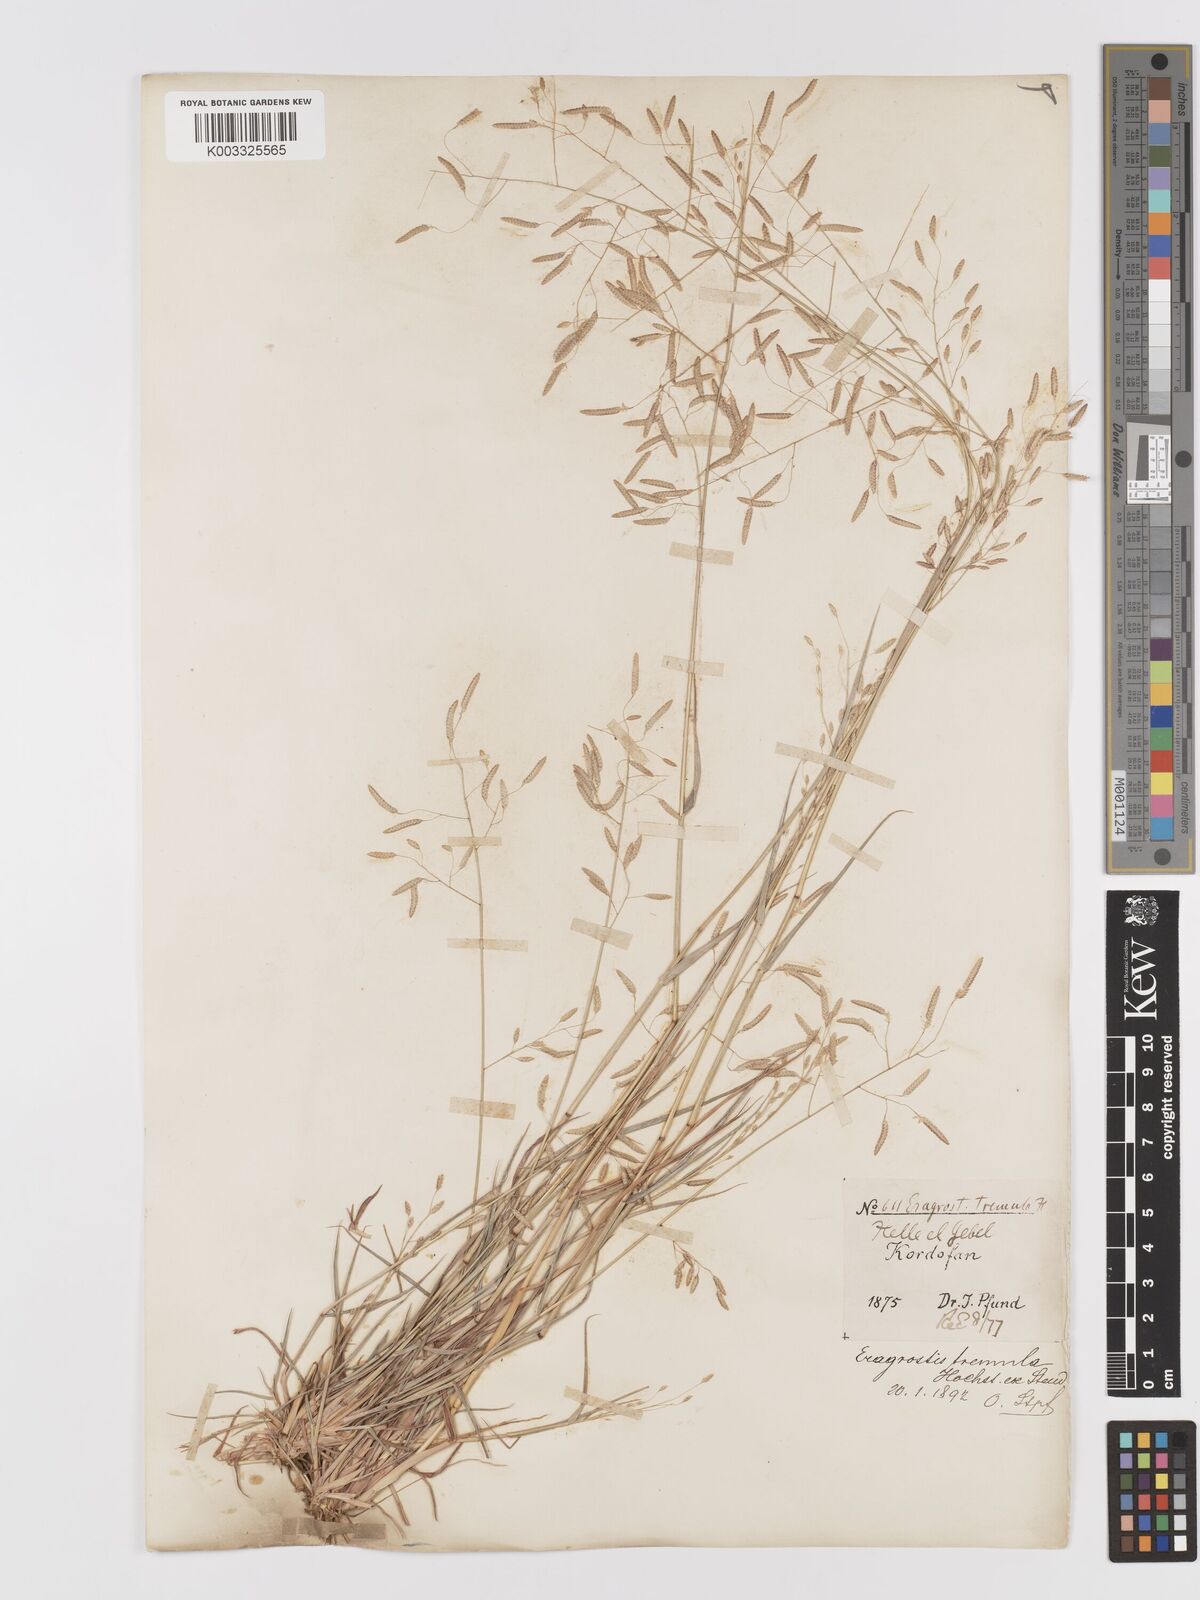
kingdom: Plantae
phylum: Tracheophyta
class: Liliopsida
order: Poales
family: Poaceae
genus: Eragrostis
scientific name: Eragrostis tremula
